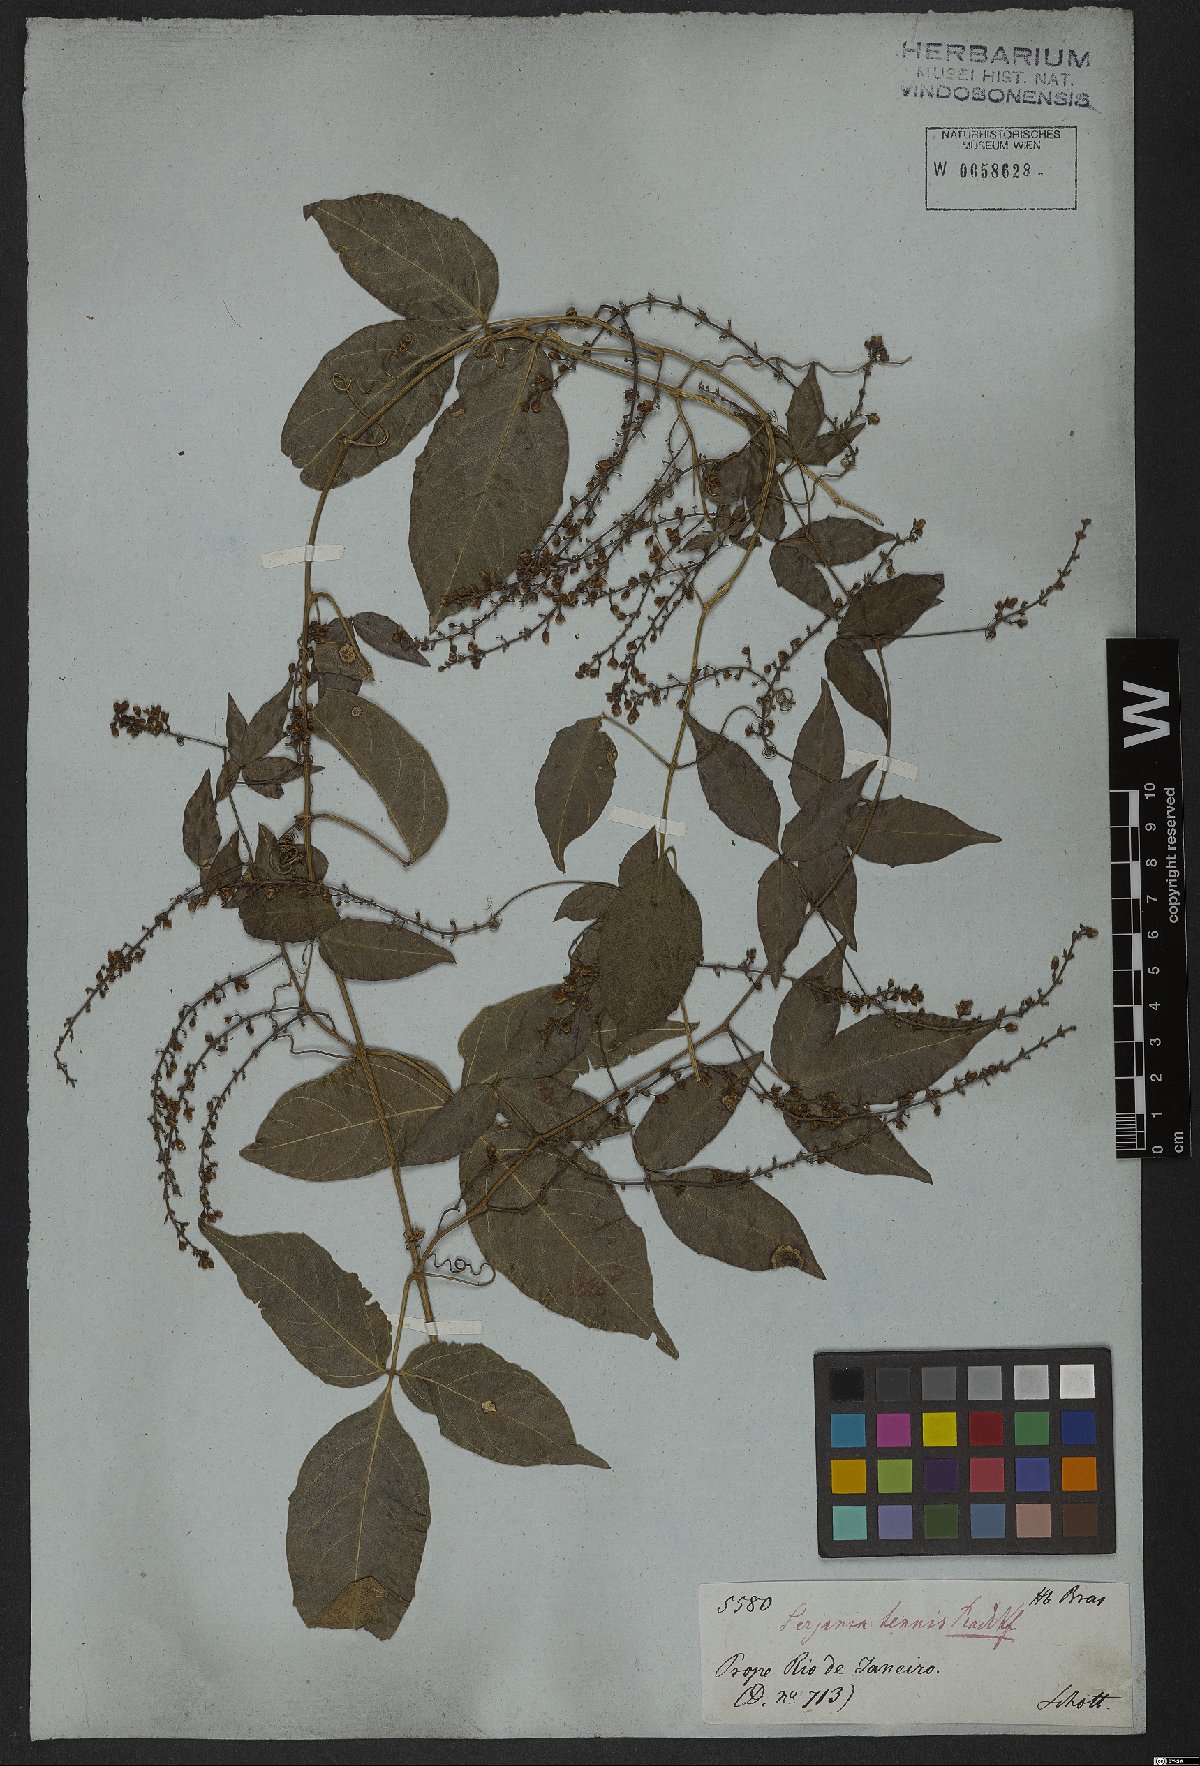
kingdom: Plantae
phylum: Tracheophyta
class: Magnoliopsida
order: Sapindales
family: Sapindaceae
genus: Serjania
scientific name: Serjania tenuis
